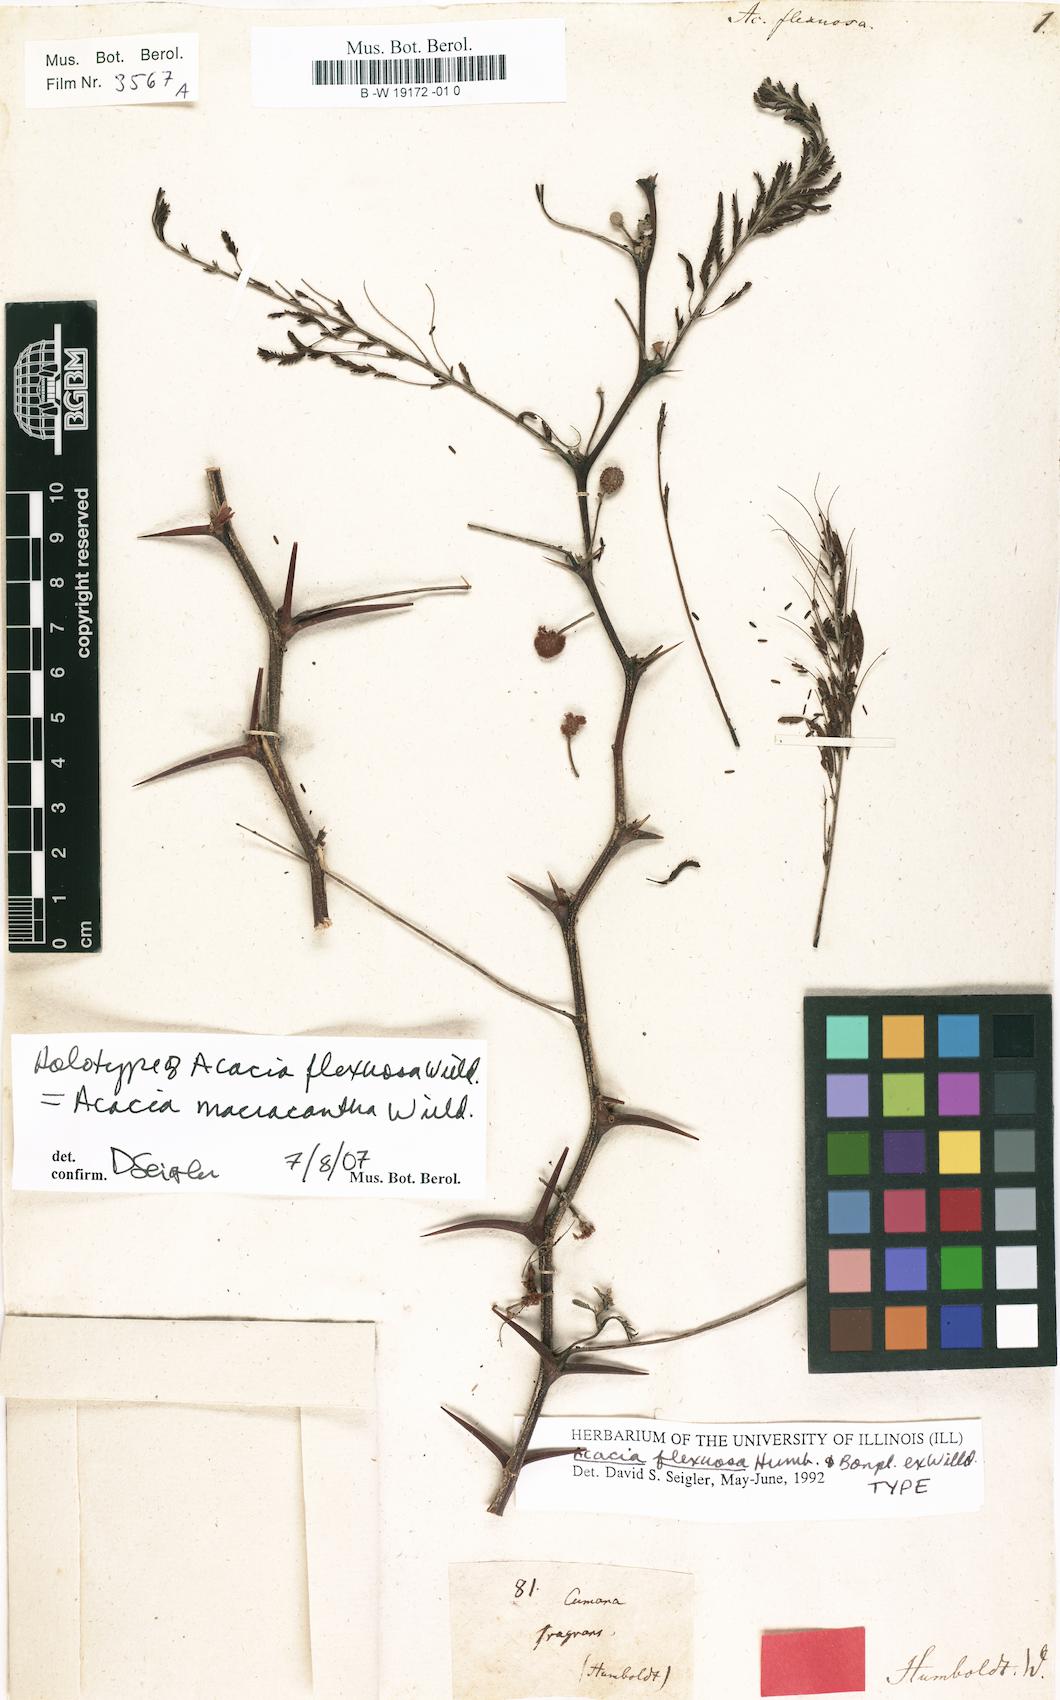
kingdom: Plantae
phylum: Tracheophyta
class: Magnoliopsida
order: Fabales
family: Fabaceae
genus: Vachellia
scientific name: Vachellia macracantha
